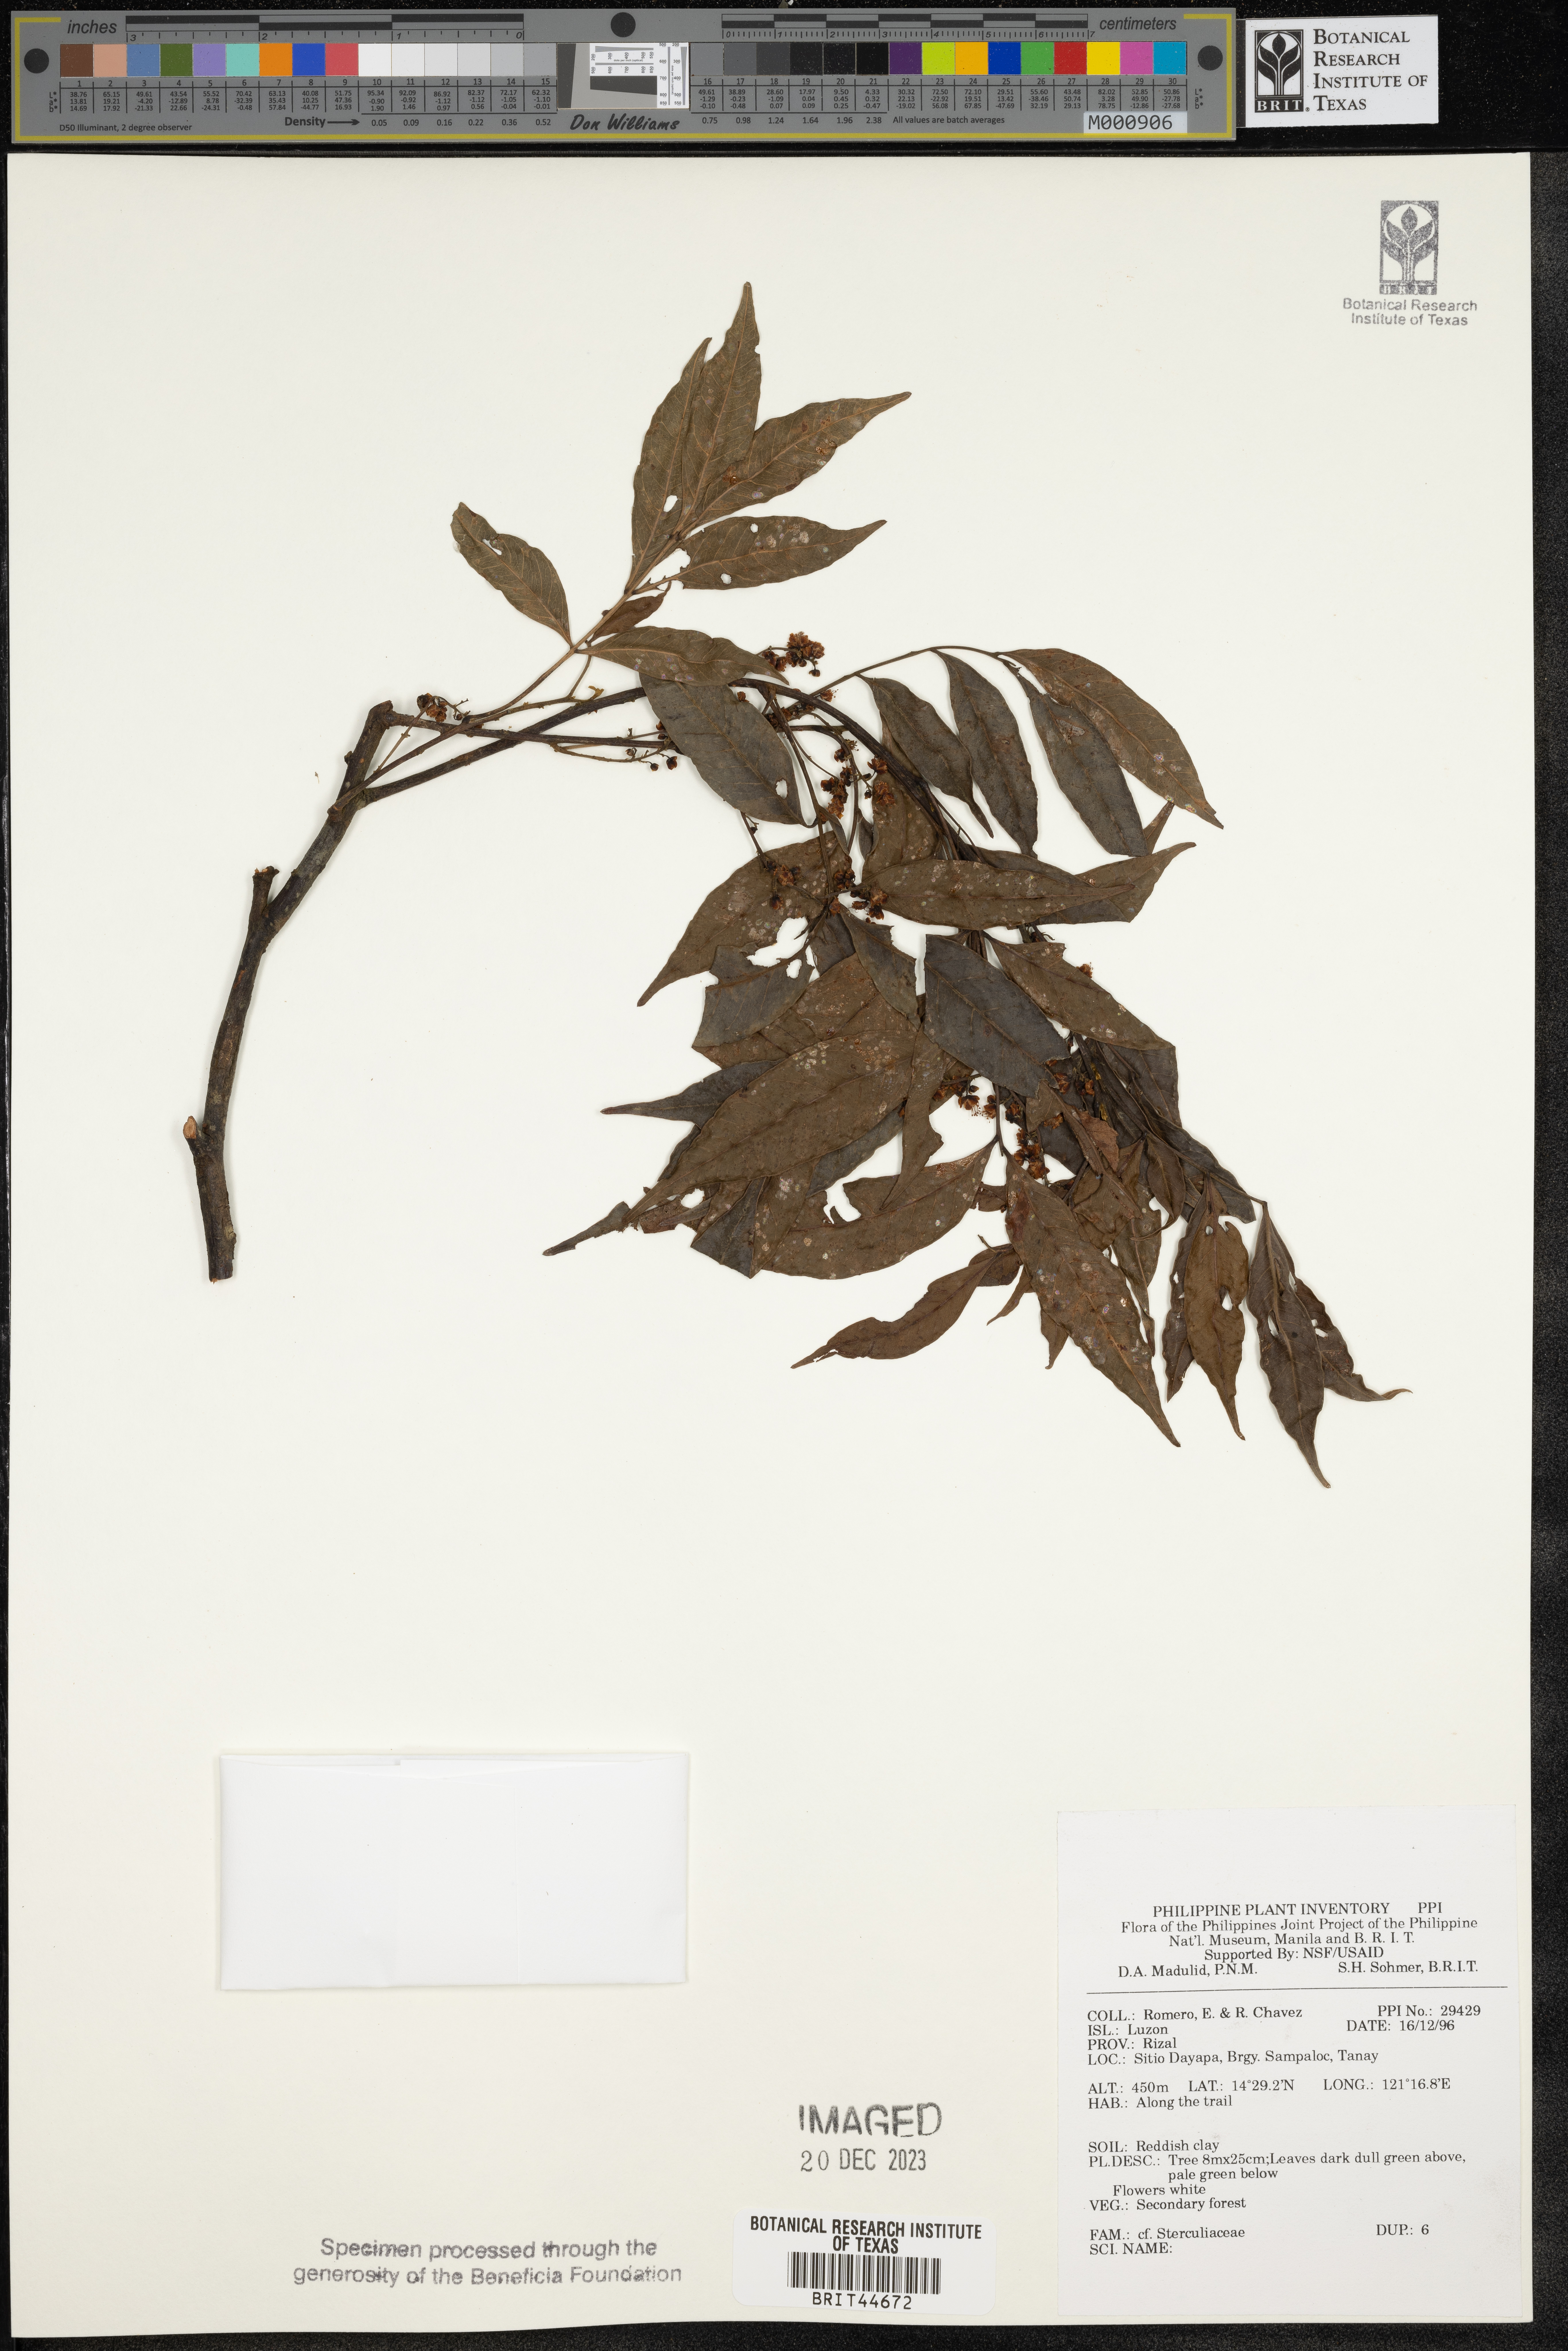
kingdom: Plantae
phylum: Tracheophyta
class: Magnoliopsida
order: Malvales
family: Sterculiaceae
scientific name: Sterculiaceae
